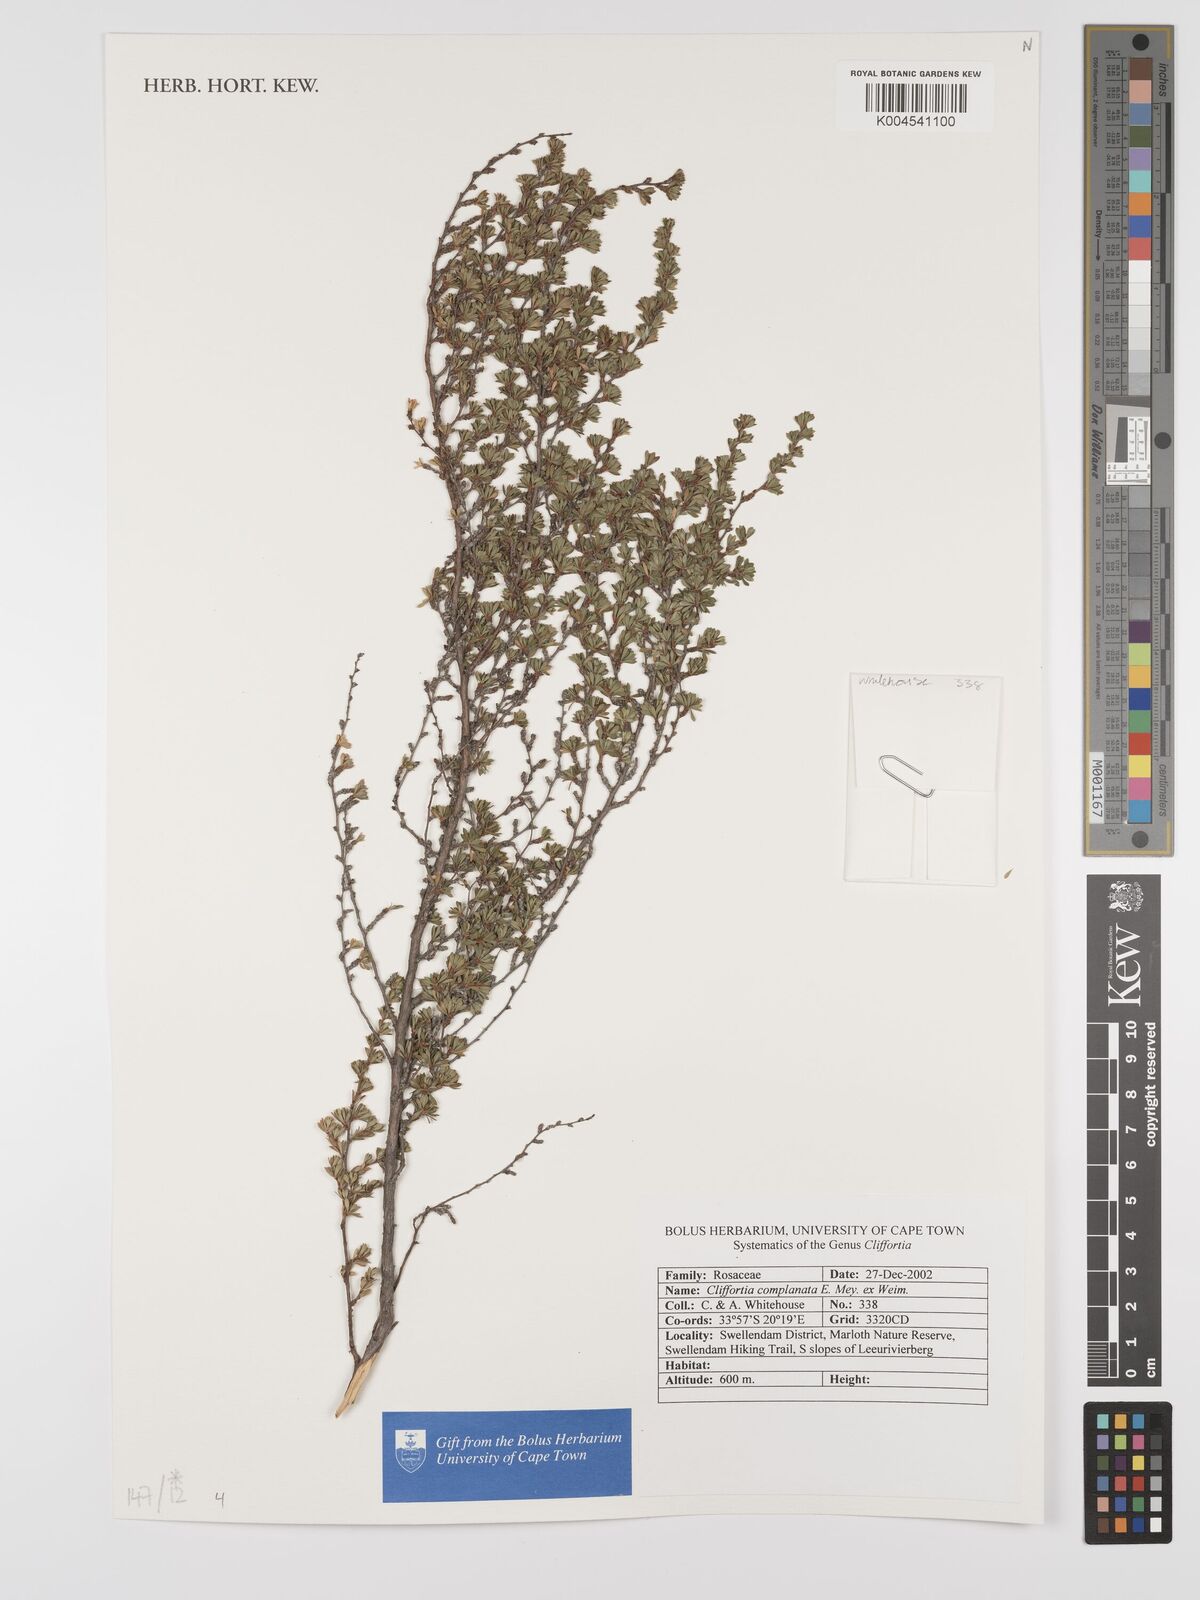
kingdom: Plantae
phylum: Tracheophyta
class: Magnoliopsida
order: Rosales
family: Rosaceae
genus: Cliffortia
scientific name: Cliffortia complanata
